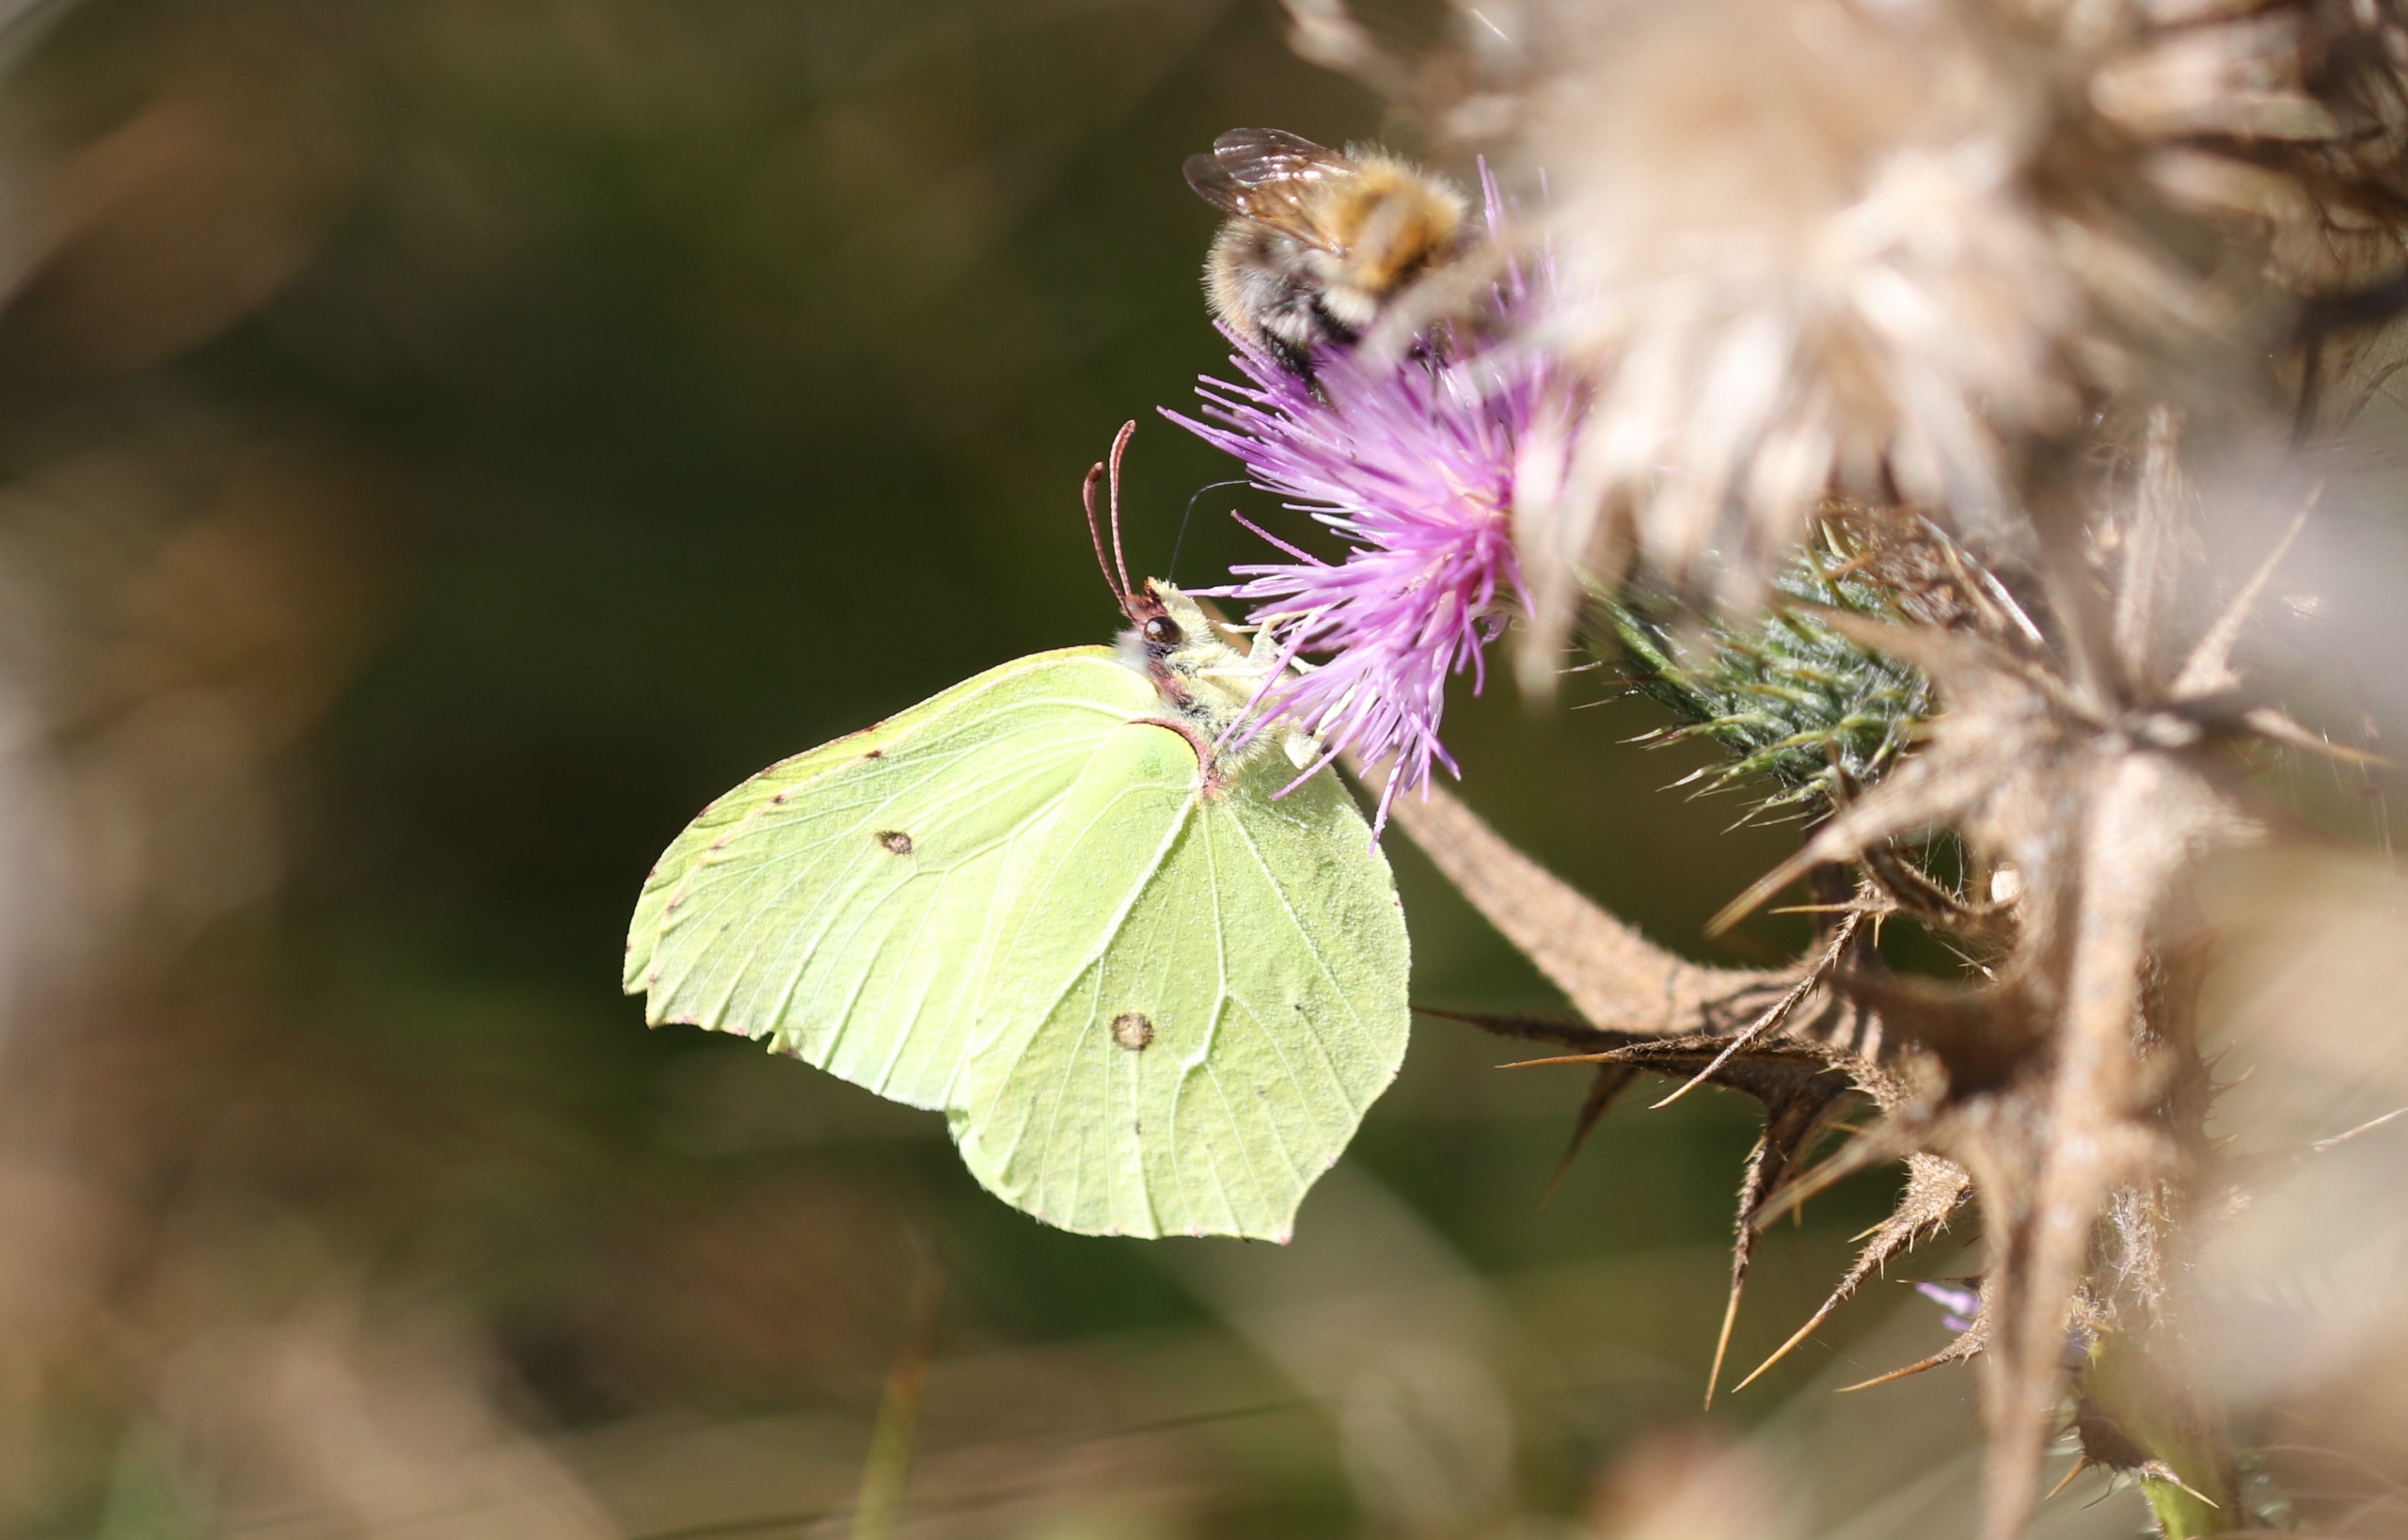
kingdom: Animalia
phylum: Arthropoda
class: Insecta
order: Lepidoptera
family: Pieridae
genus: Gonepteryx
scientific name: Gonepteryx rhamni
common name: Citronsommerfugl
